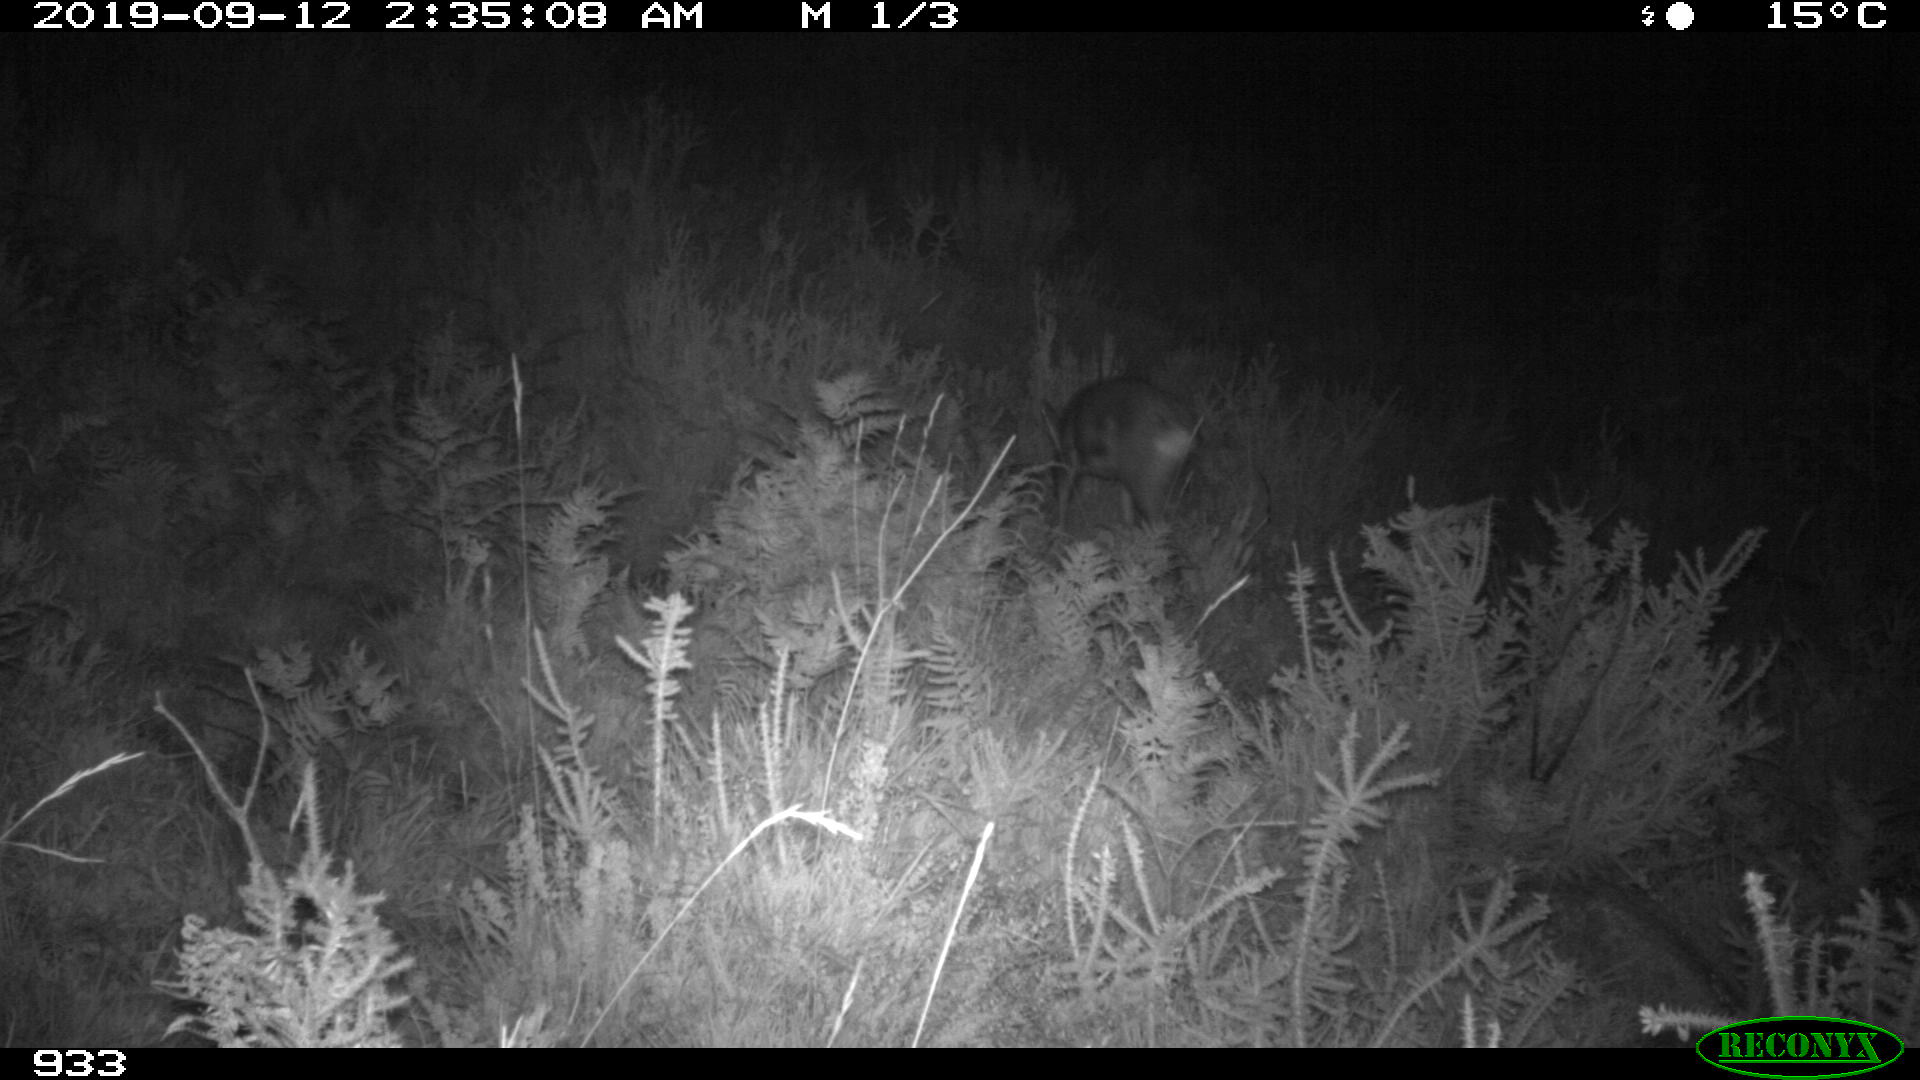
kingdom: Animalia
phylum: Chordata
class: Mammalia
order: Artiodactyla
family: Cervidae
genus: Capreolus
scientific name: Capreolus capreolus
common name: Western roe deer
